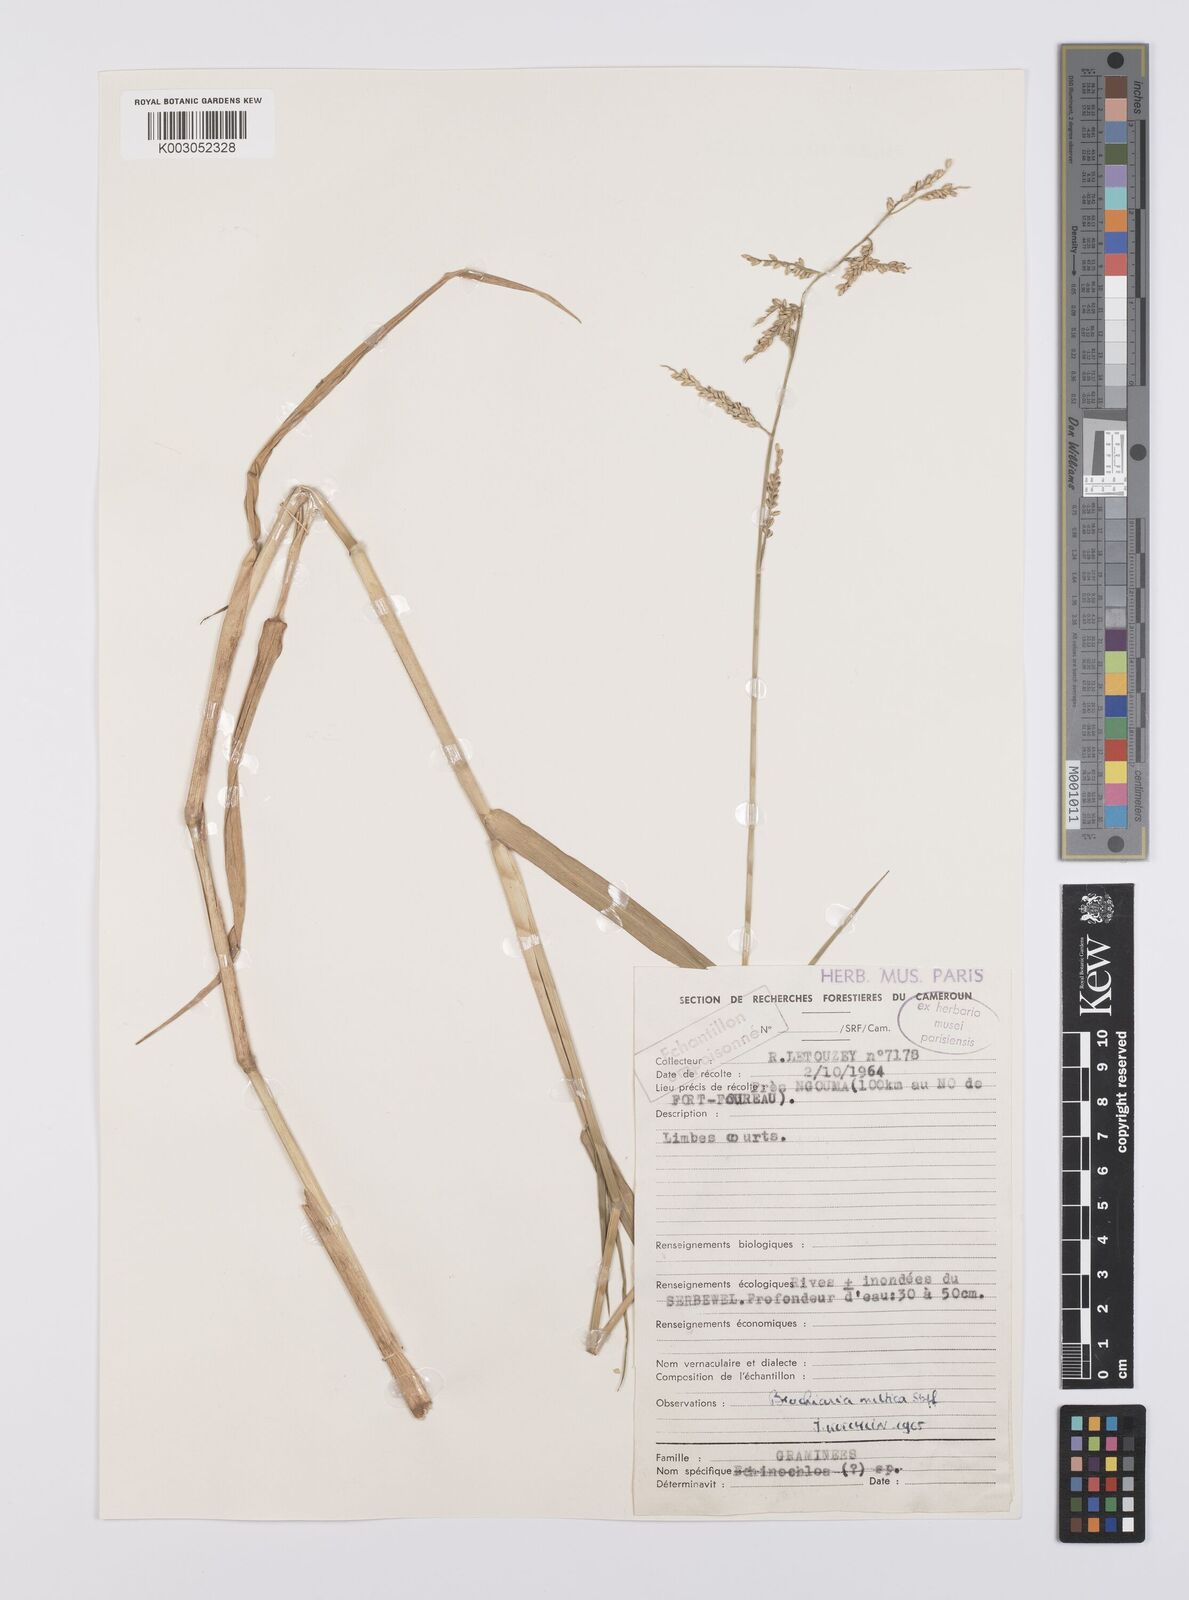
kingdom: Plantae
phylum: Tracheophyta
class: Liliopsida
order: Poales
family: Poaceae
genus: Urochloa
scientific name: Urochloa mutica
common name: Para grass
